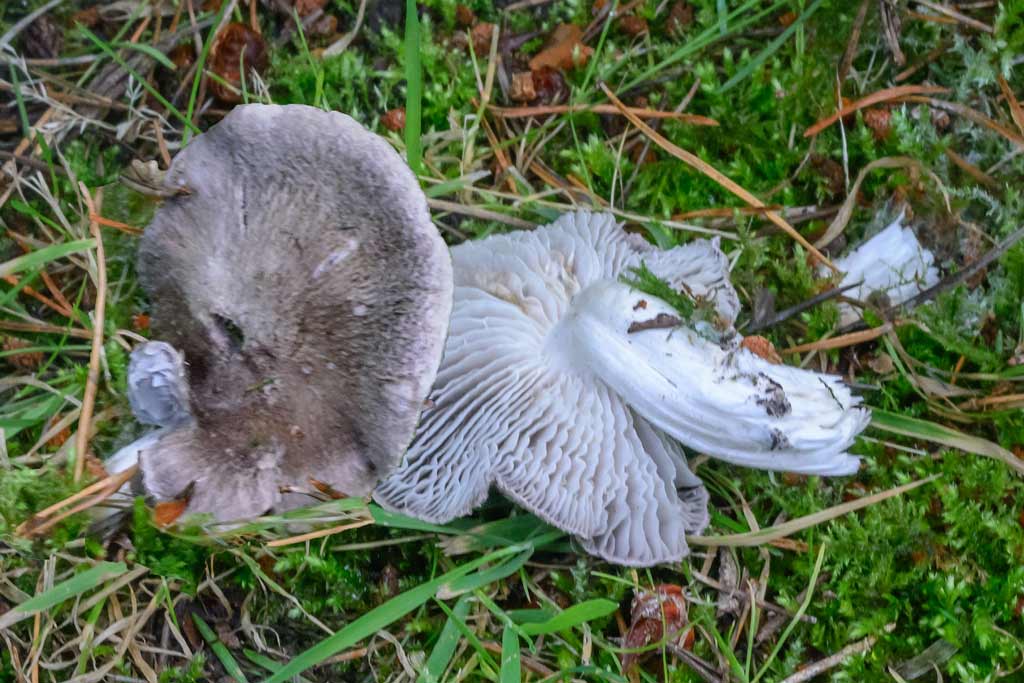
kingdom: Fungi
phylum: Basidiomycota
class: Agaricomycetes
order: Agaricales
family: Tricholomataceae
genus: Tricholoma
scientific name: Tricholoma
